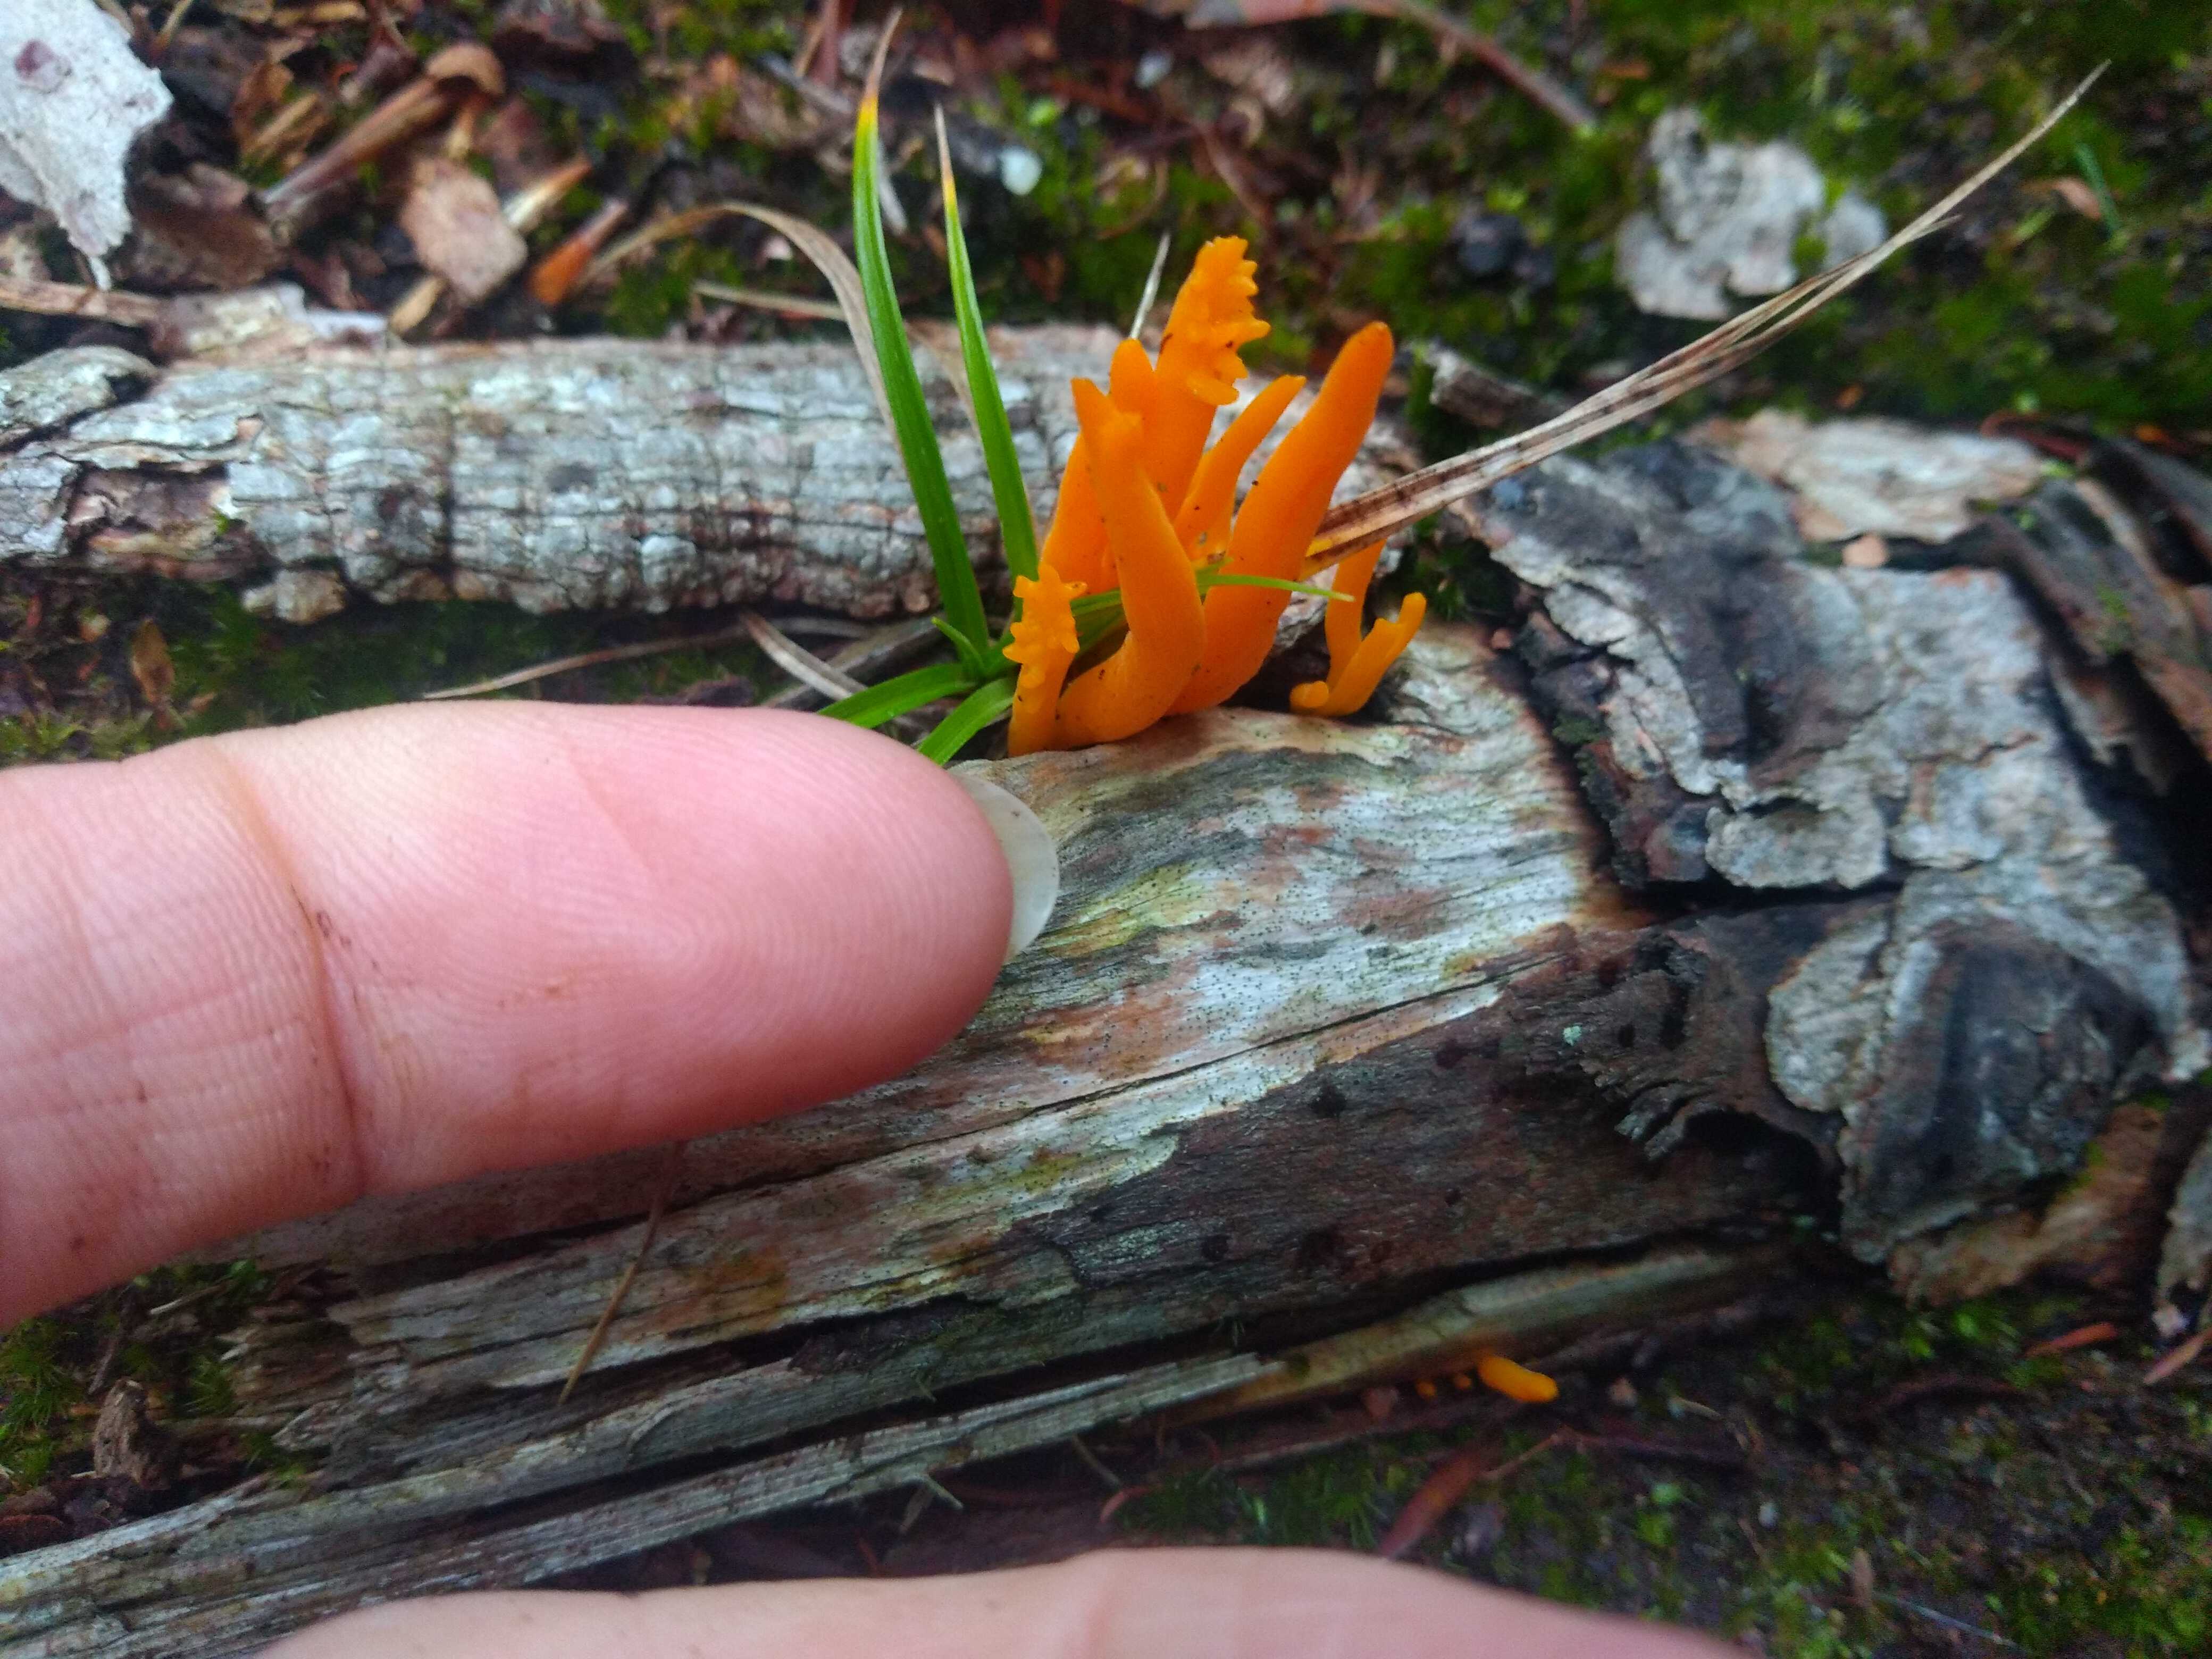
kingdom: Fungi
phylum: Basidiomycota
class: Dacrymycetes
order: Dacrymycetales
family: Dacrymycetaceae
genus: Calocera
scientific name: Calocera viscosa
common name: almindelig guldgaffel
